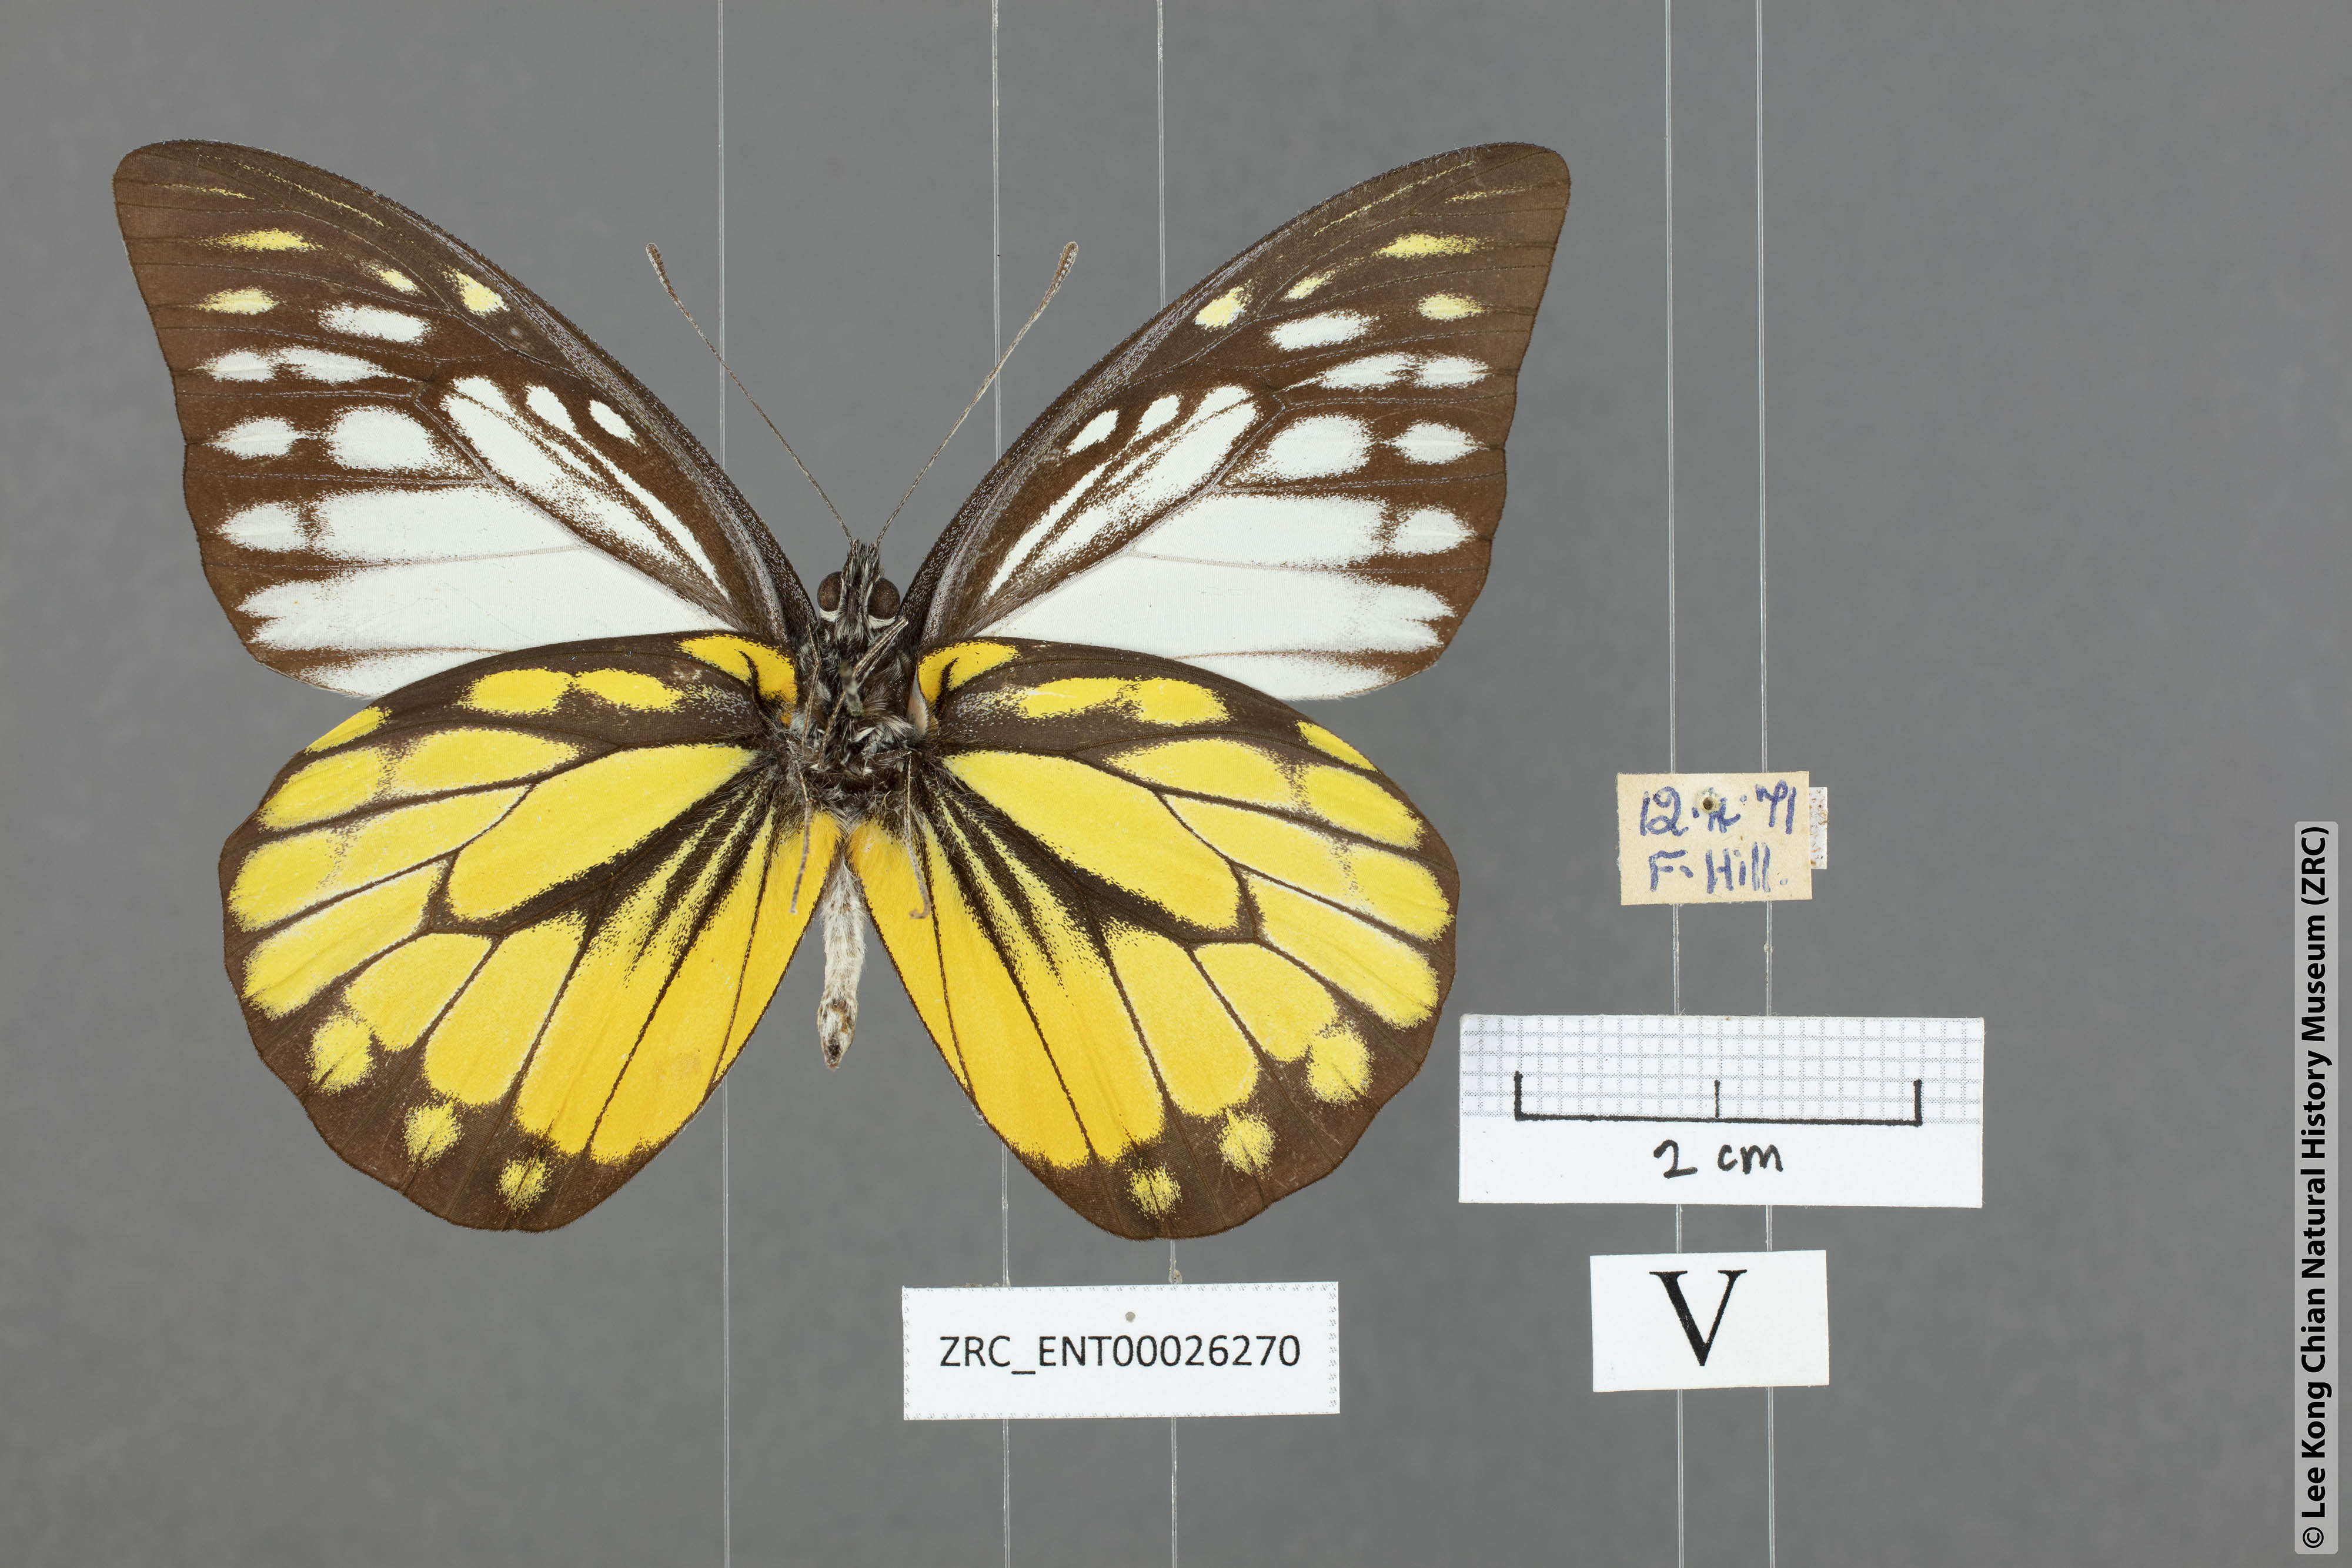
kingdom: Animalia
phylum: Arthropoda
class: Insecta
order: Lepidoptera
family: Pieridae
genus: Prioneris
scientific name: Prioneris thestylis
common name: Spotted sawtooth
